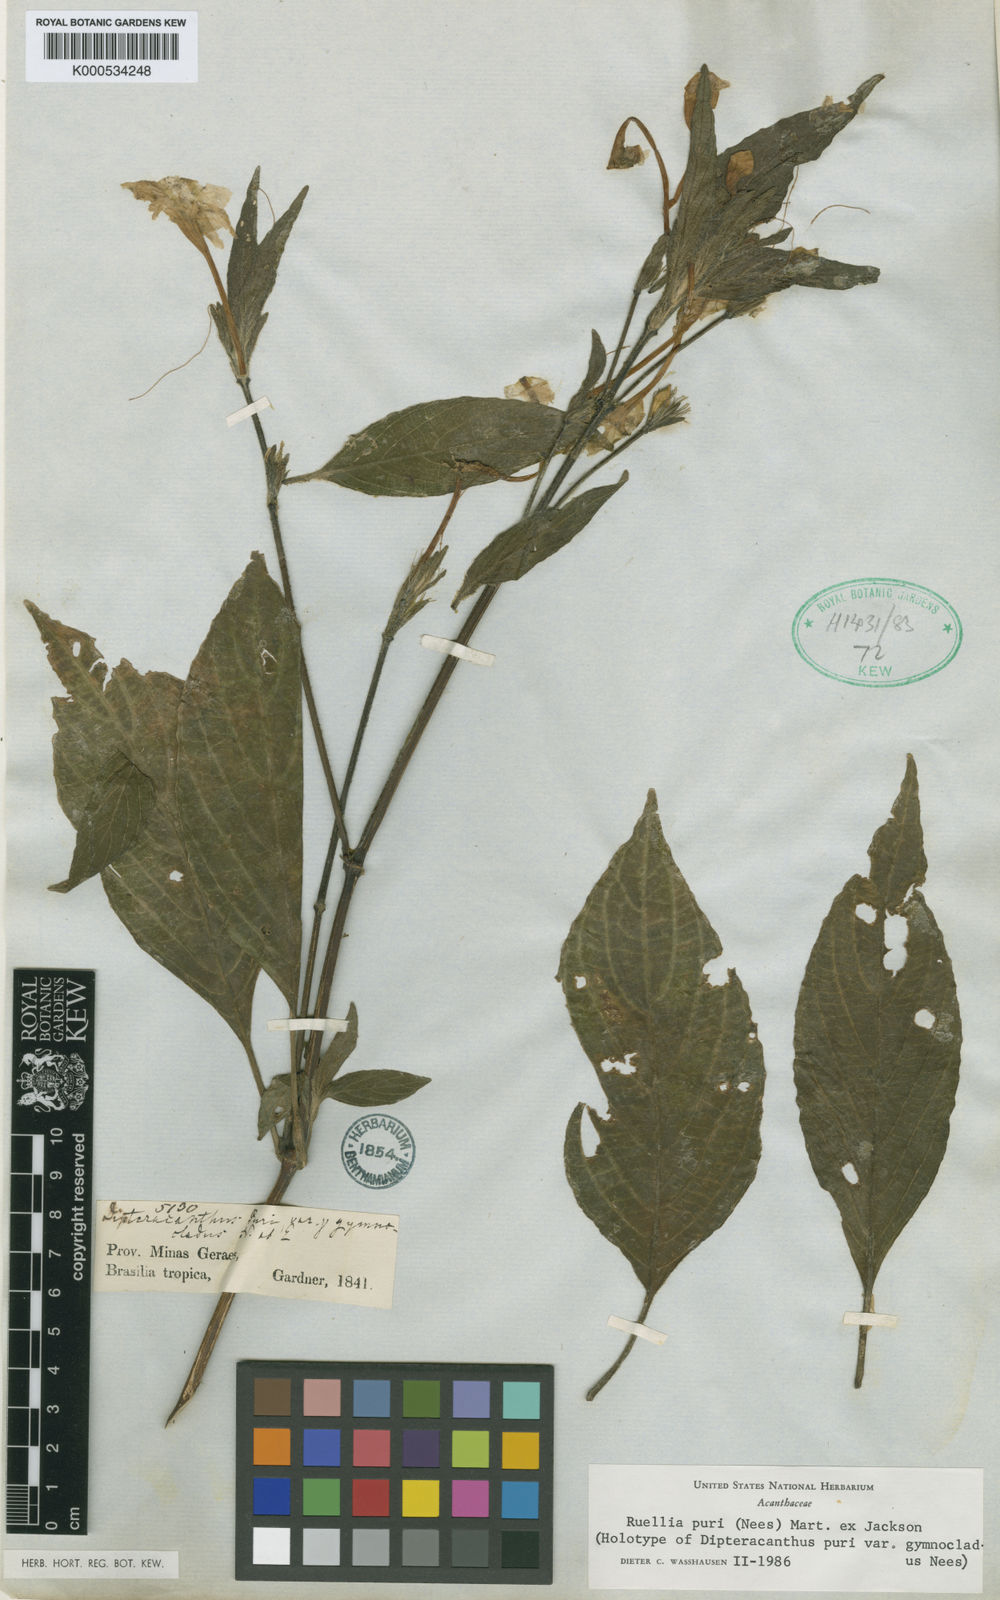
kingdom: Plantae
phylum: Tracheophyta
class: Magnoliopsida
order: Lamiales
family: Acanthaceae
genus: Ruellia
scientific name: Ruellia jussieuoides
